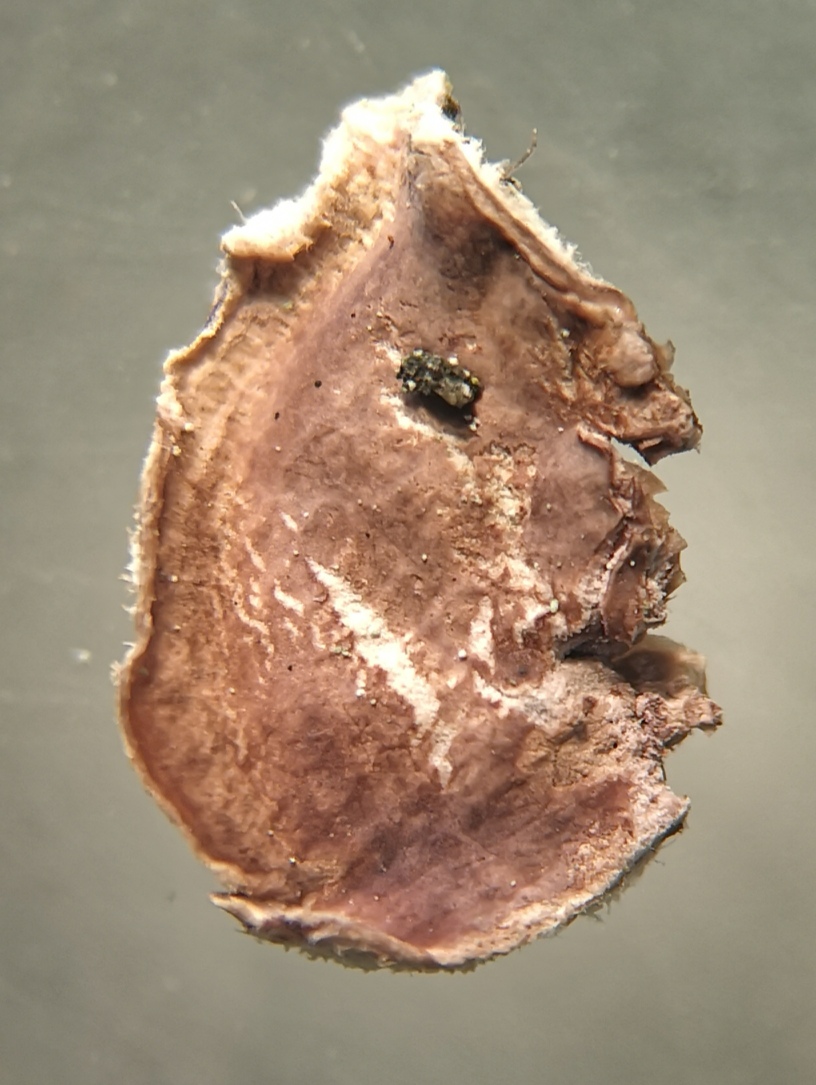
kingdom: Fungi
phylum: Basidiomycota
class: Agaricomycetes
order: Corticiales
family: Corticiaceae
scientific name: Corticiaceae
